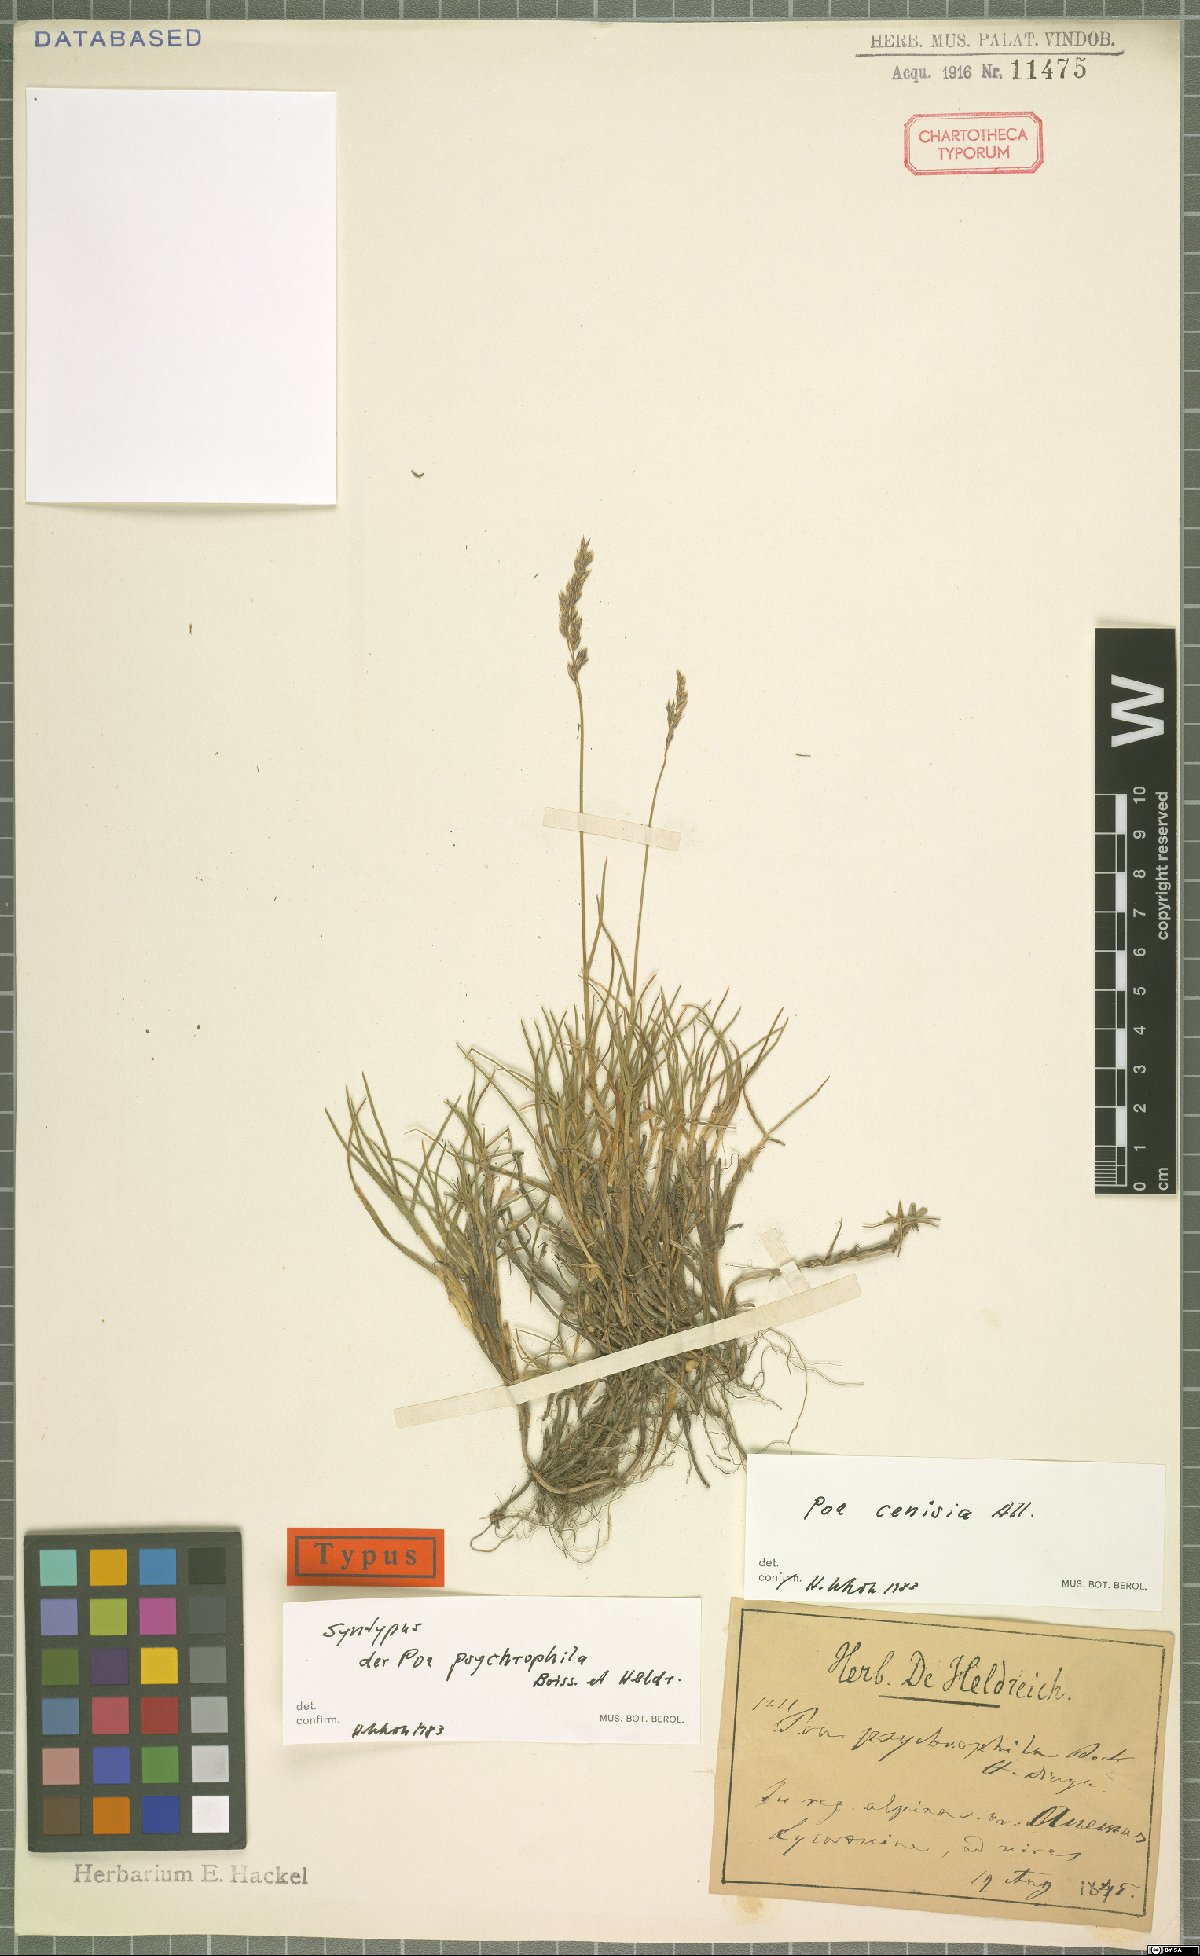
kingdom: Plantae
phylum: Tracheophyta
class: Liliopsida
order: Poales
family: Poaceae
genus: Poa
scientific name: Poa cenisia
